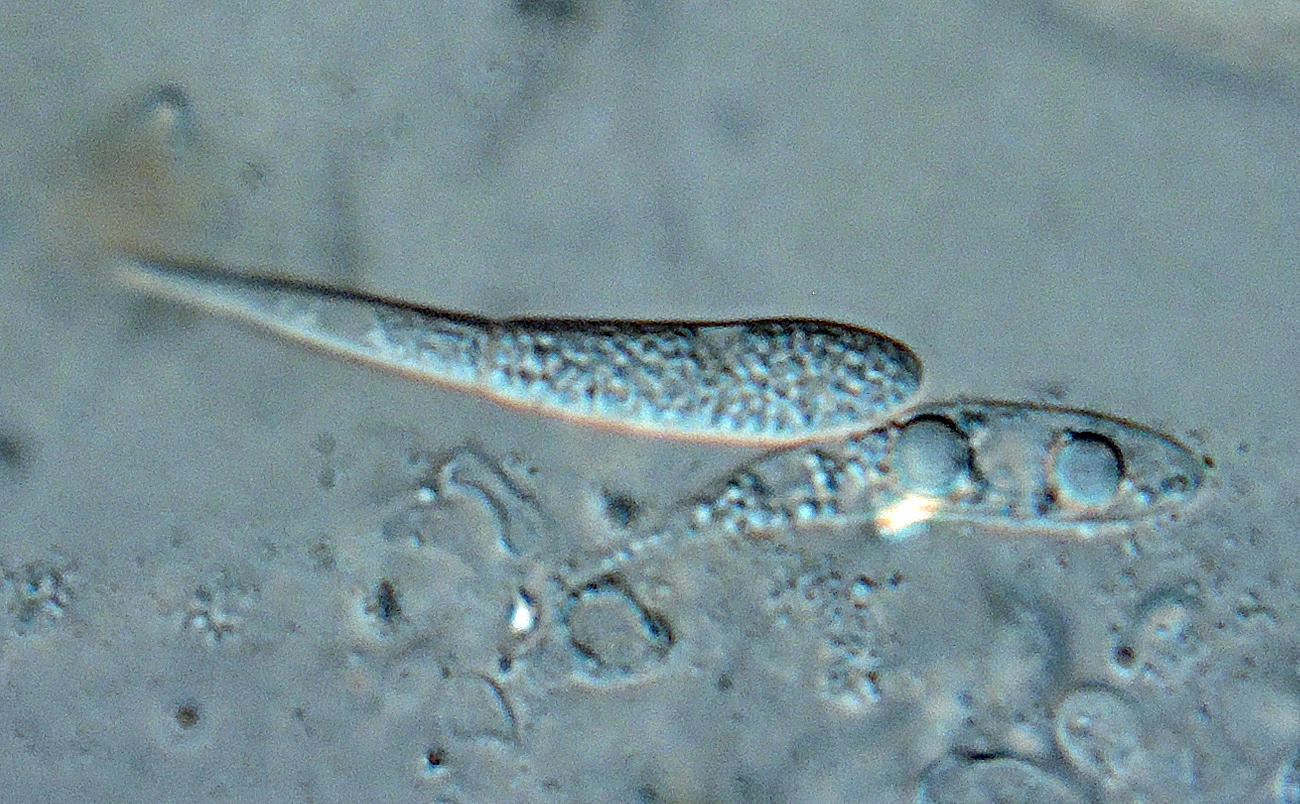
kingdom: Fungi
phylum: Ascomycota
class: Dothideomycetes
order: Tubeufiales
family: Tubeufiaceae
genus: Rebentischia
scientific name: Rebentischia unicaudata
